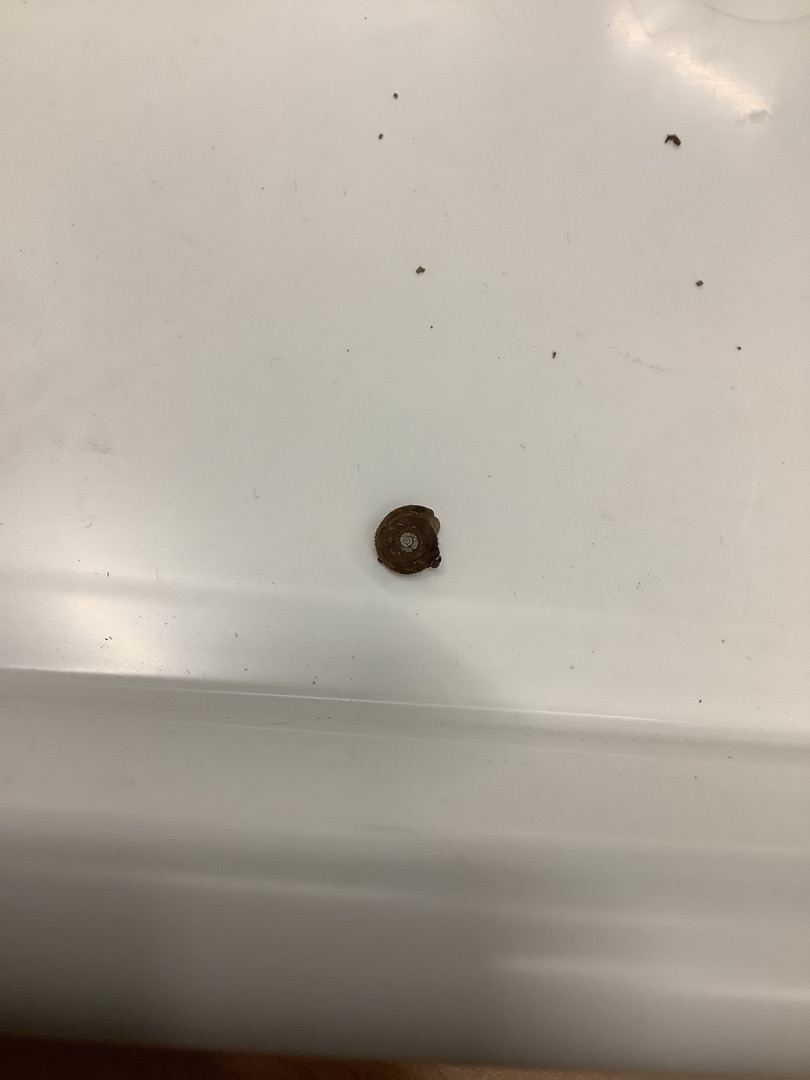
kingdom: Animalia
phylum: Mollusca
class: Gastropoda
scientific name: Gastropoda
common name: Snegle
